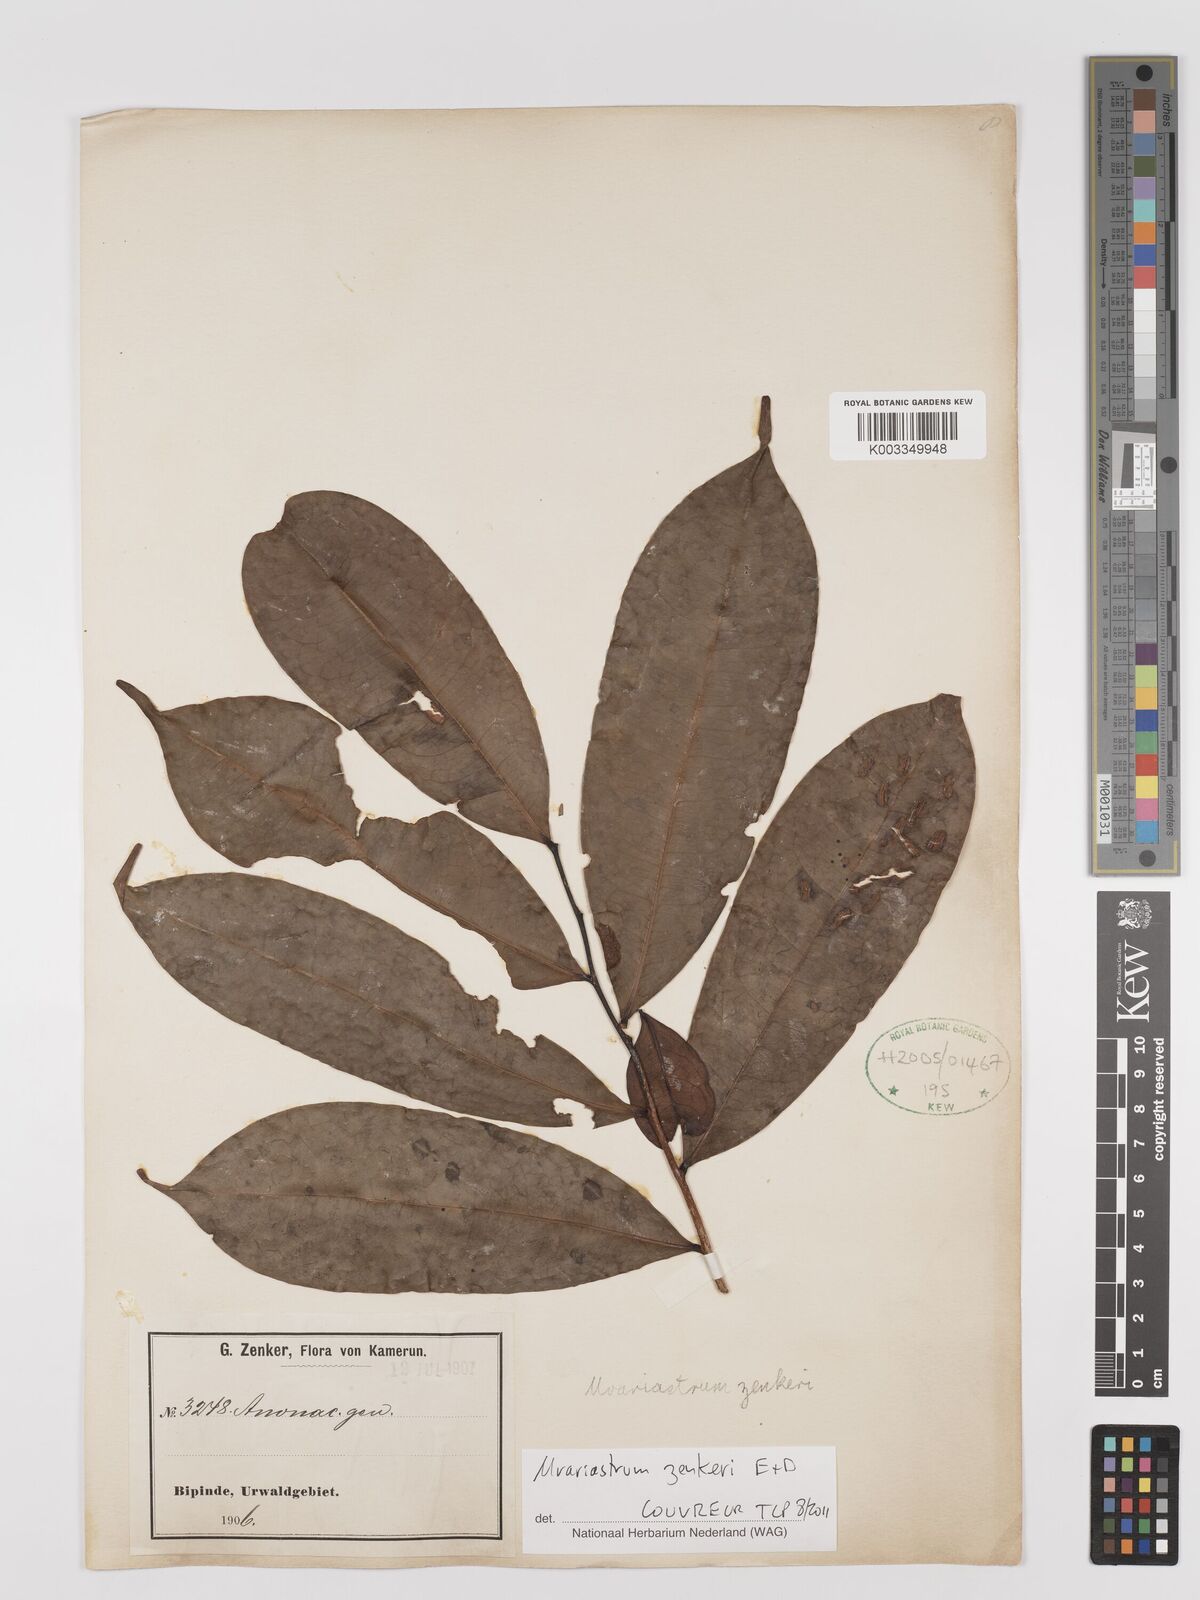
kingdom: Plantae
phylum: Tracheophyta
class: Magnoliopsida
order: Magnoliales
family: Annonaceae
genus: Uvariastrum
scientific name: Uvariastrum zenkeri
